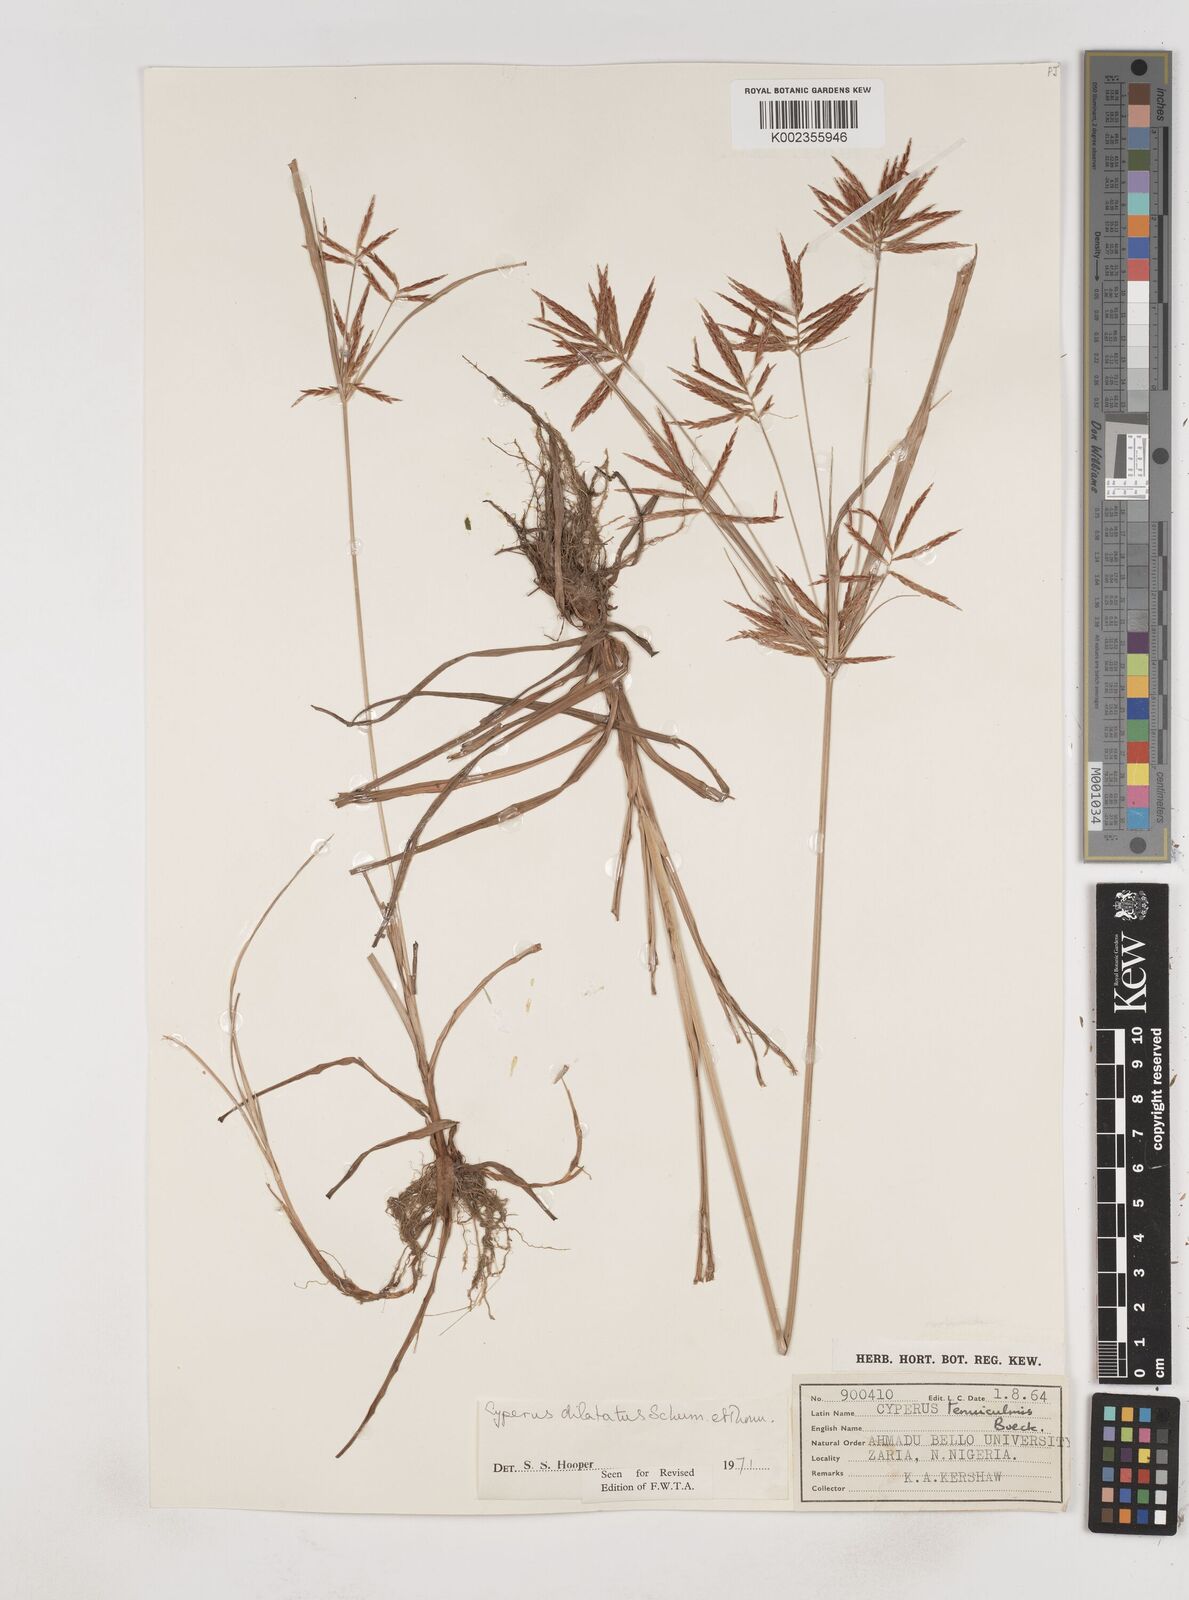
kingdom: Plantae
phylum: Tracheophyta
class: Liliopsida
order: Poales
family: Cyperaceae
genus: Cyperus
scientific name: Cyperus dilatatus
